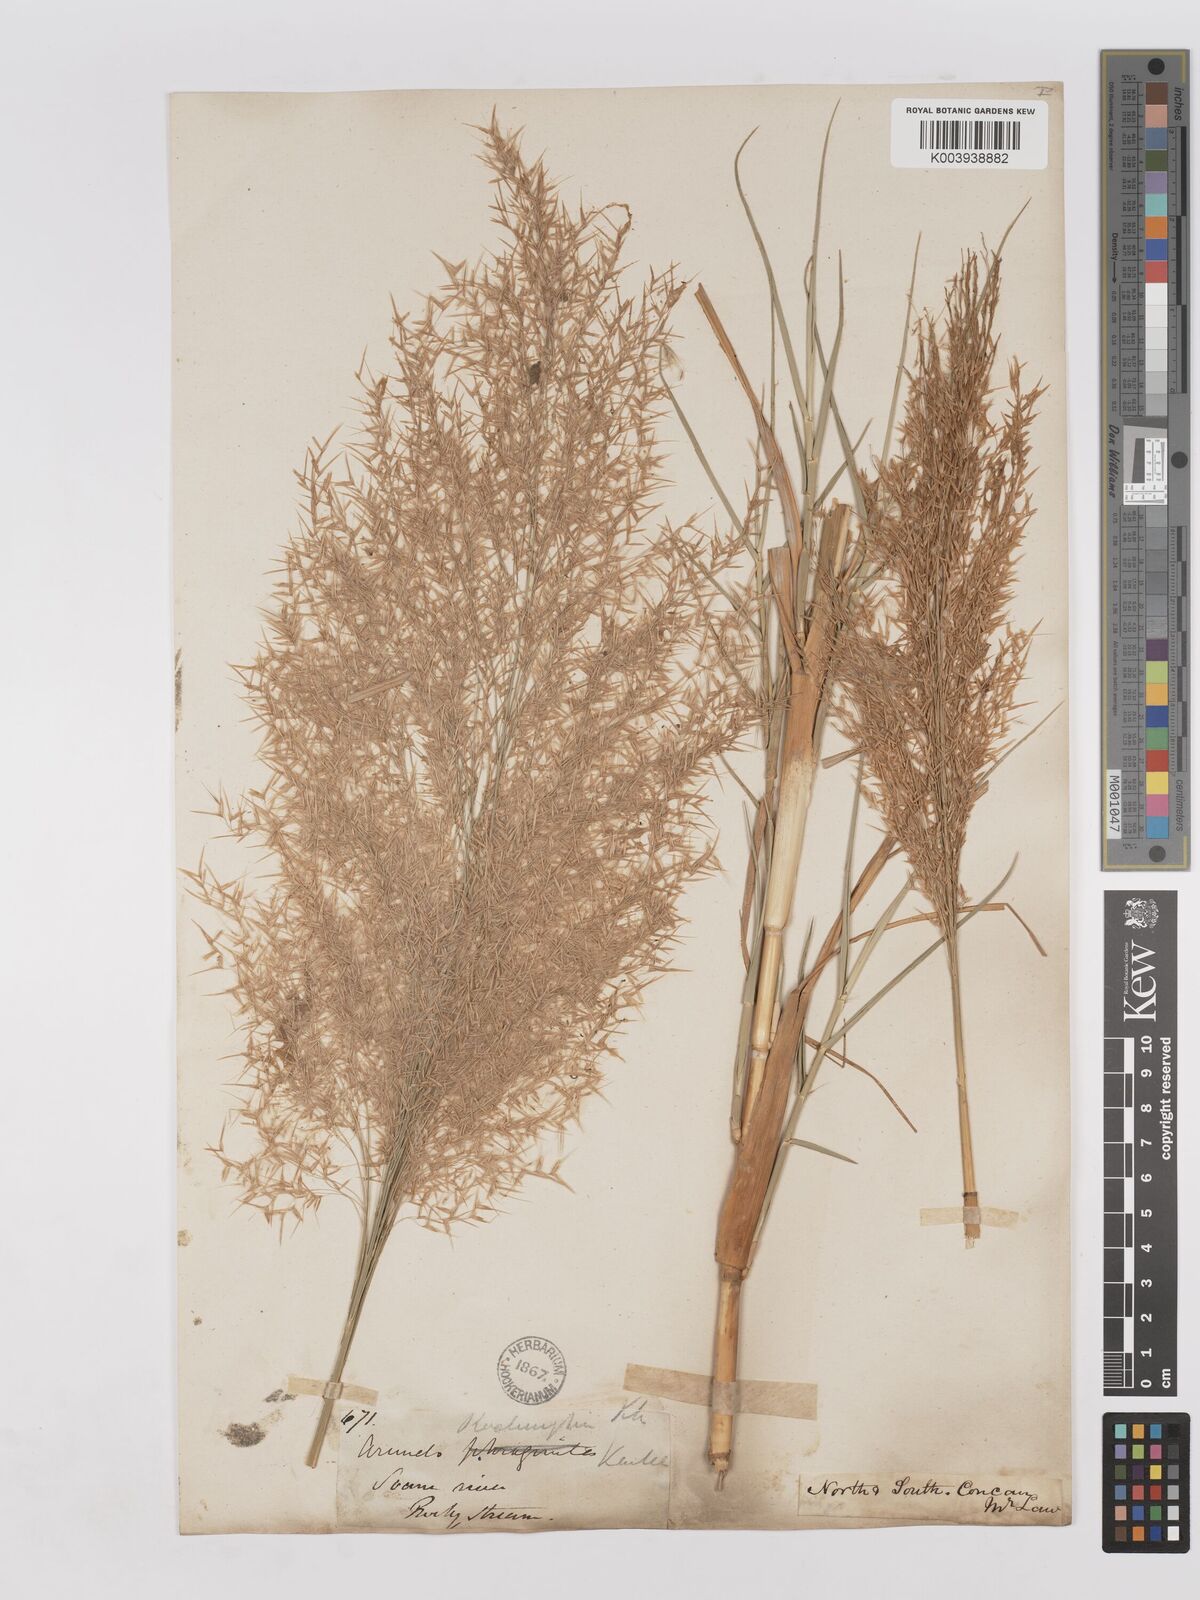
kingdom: Plantae
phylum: Tracheophyta
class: Liliopsida
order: Poales
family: Poaceae
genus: Phragmites
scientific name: Phragmites karka
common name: Tropical reed
